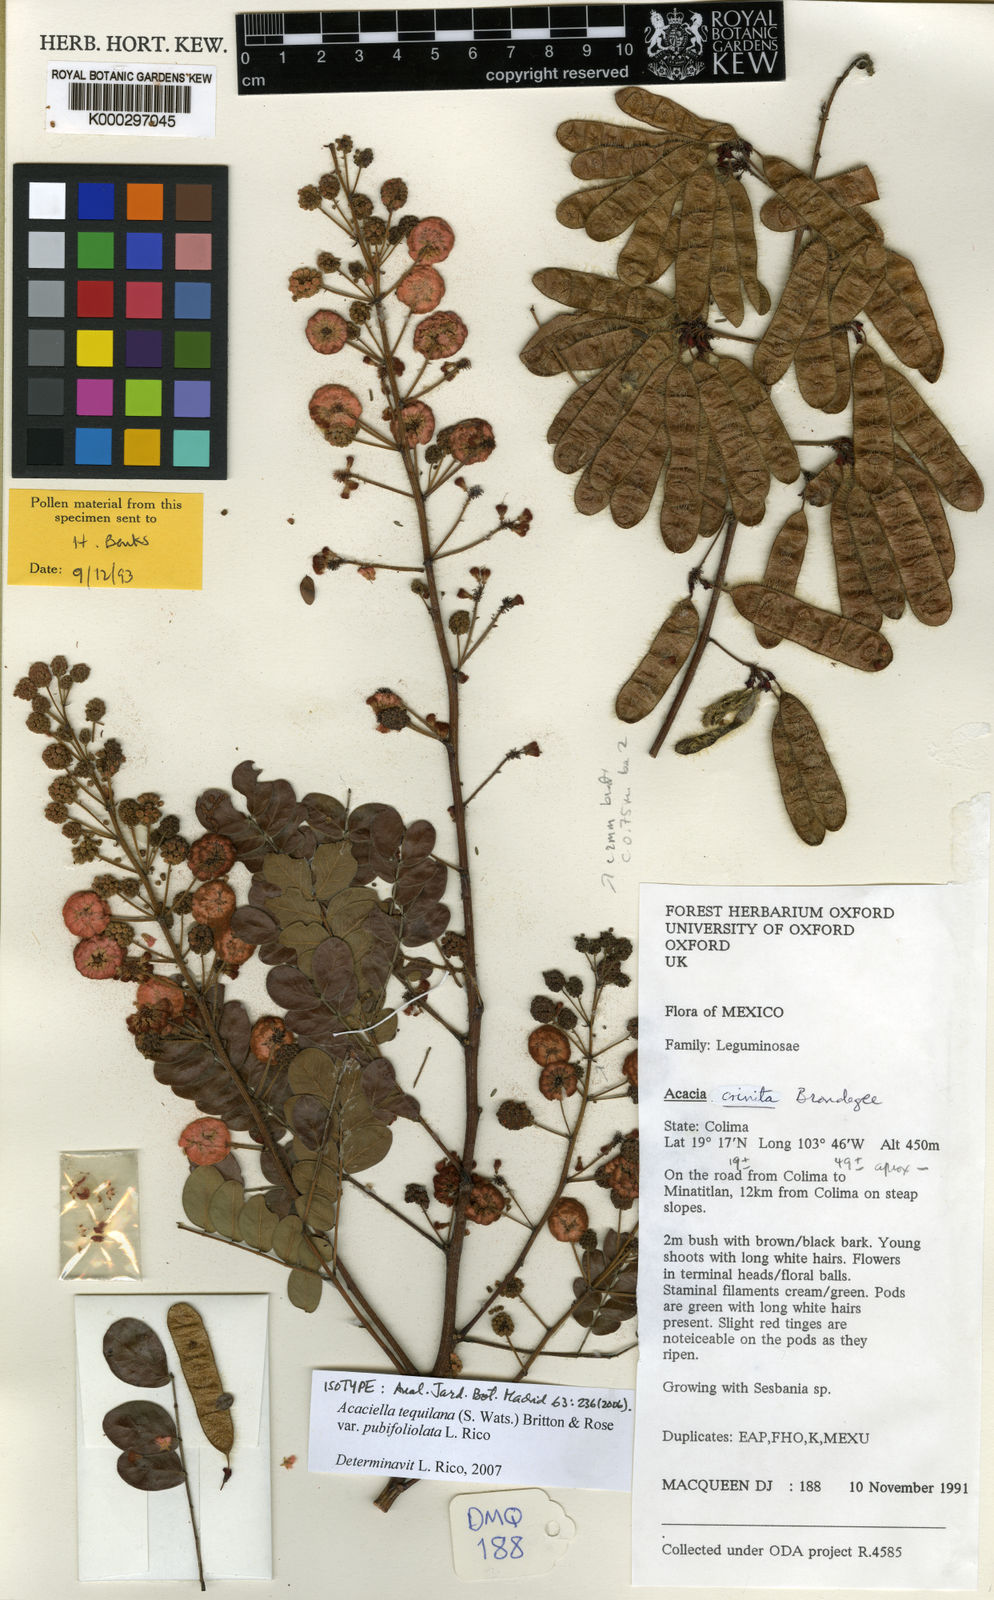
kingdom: Plantae
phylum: Tracheophyta
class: Magnoliopsida
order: Fabales
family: Fabaceae
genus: Acaciella
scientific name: Acaciella tequilana
